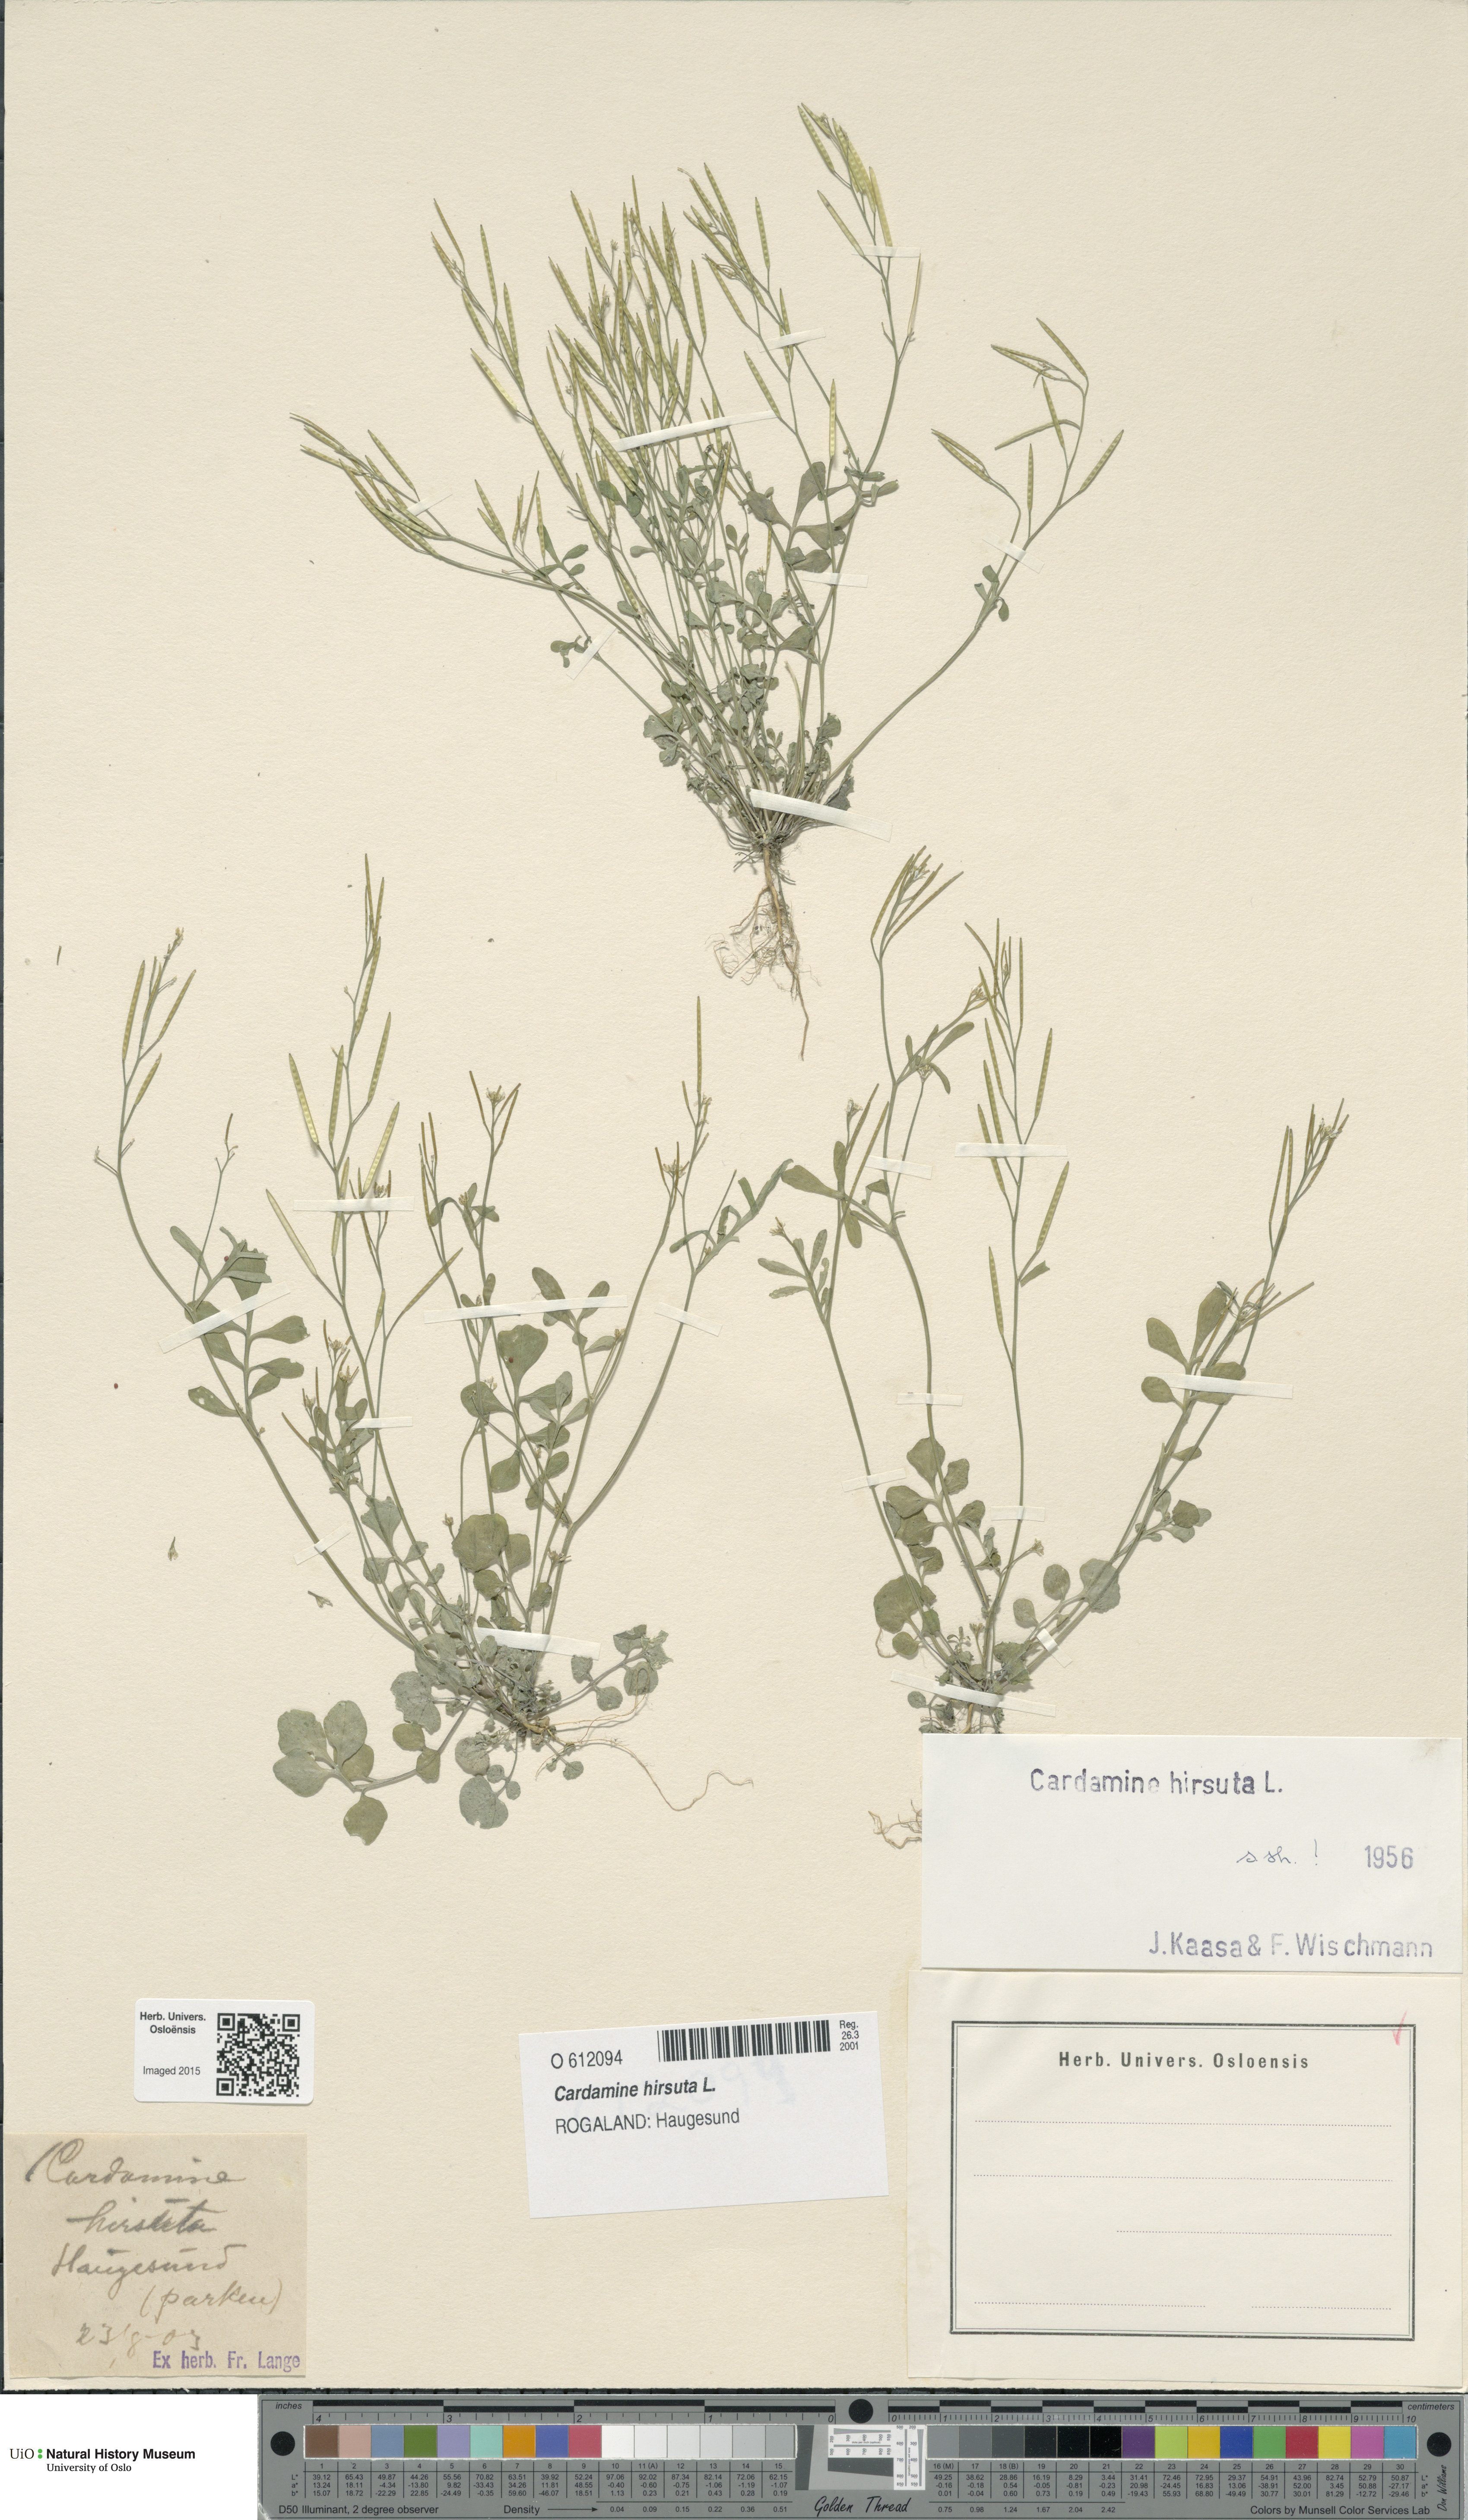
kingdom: Plantae
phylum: Tracheophyta
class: Magnoliopsida
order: Brassicales
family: Brassicaceae
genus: Cardamine
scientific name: Cardamine hirsuta
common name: Hairy bittercress
